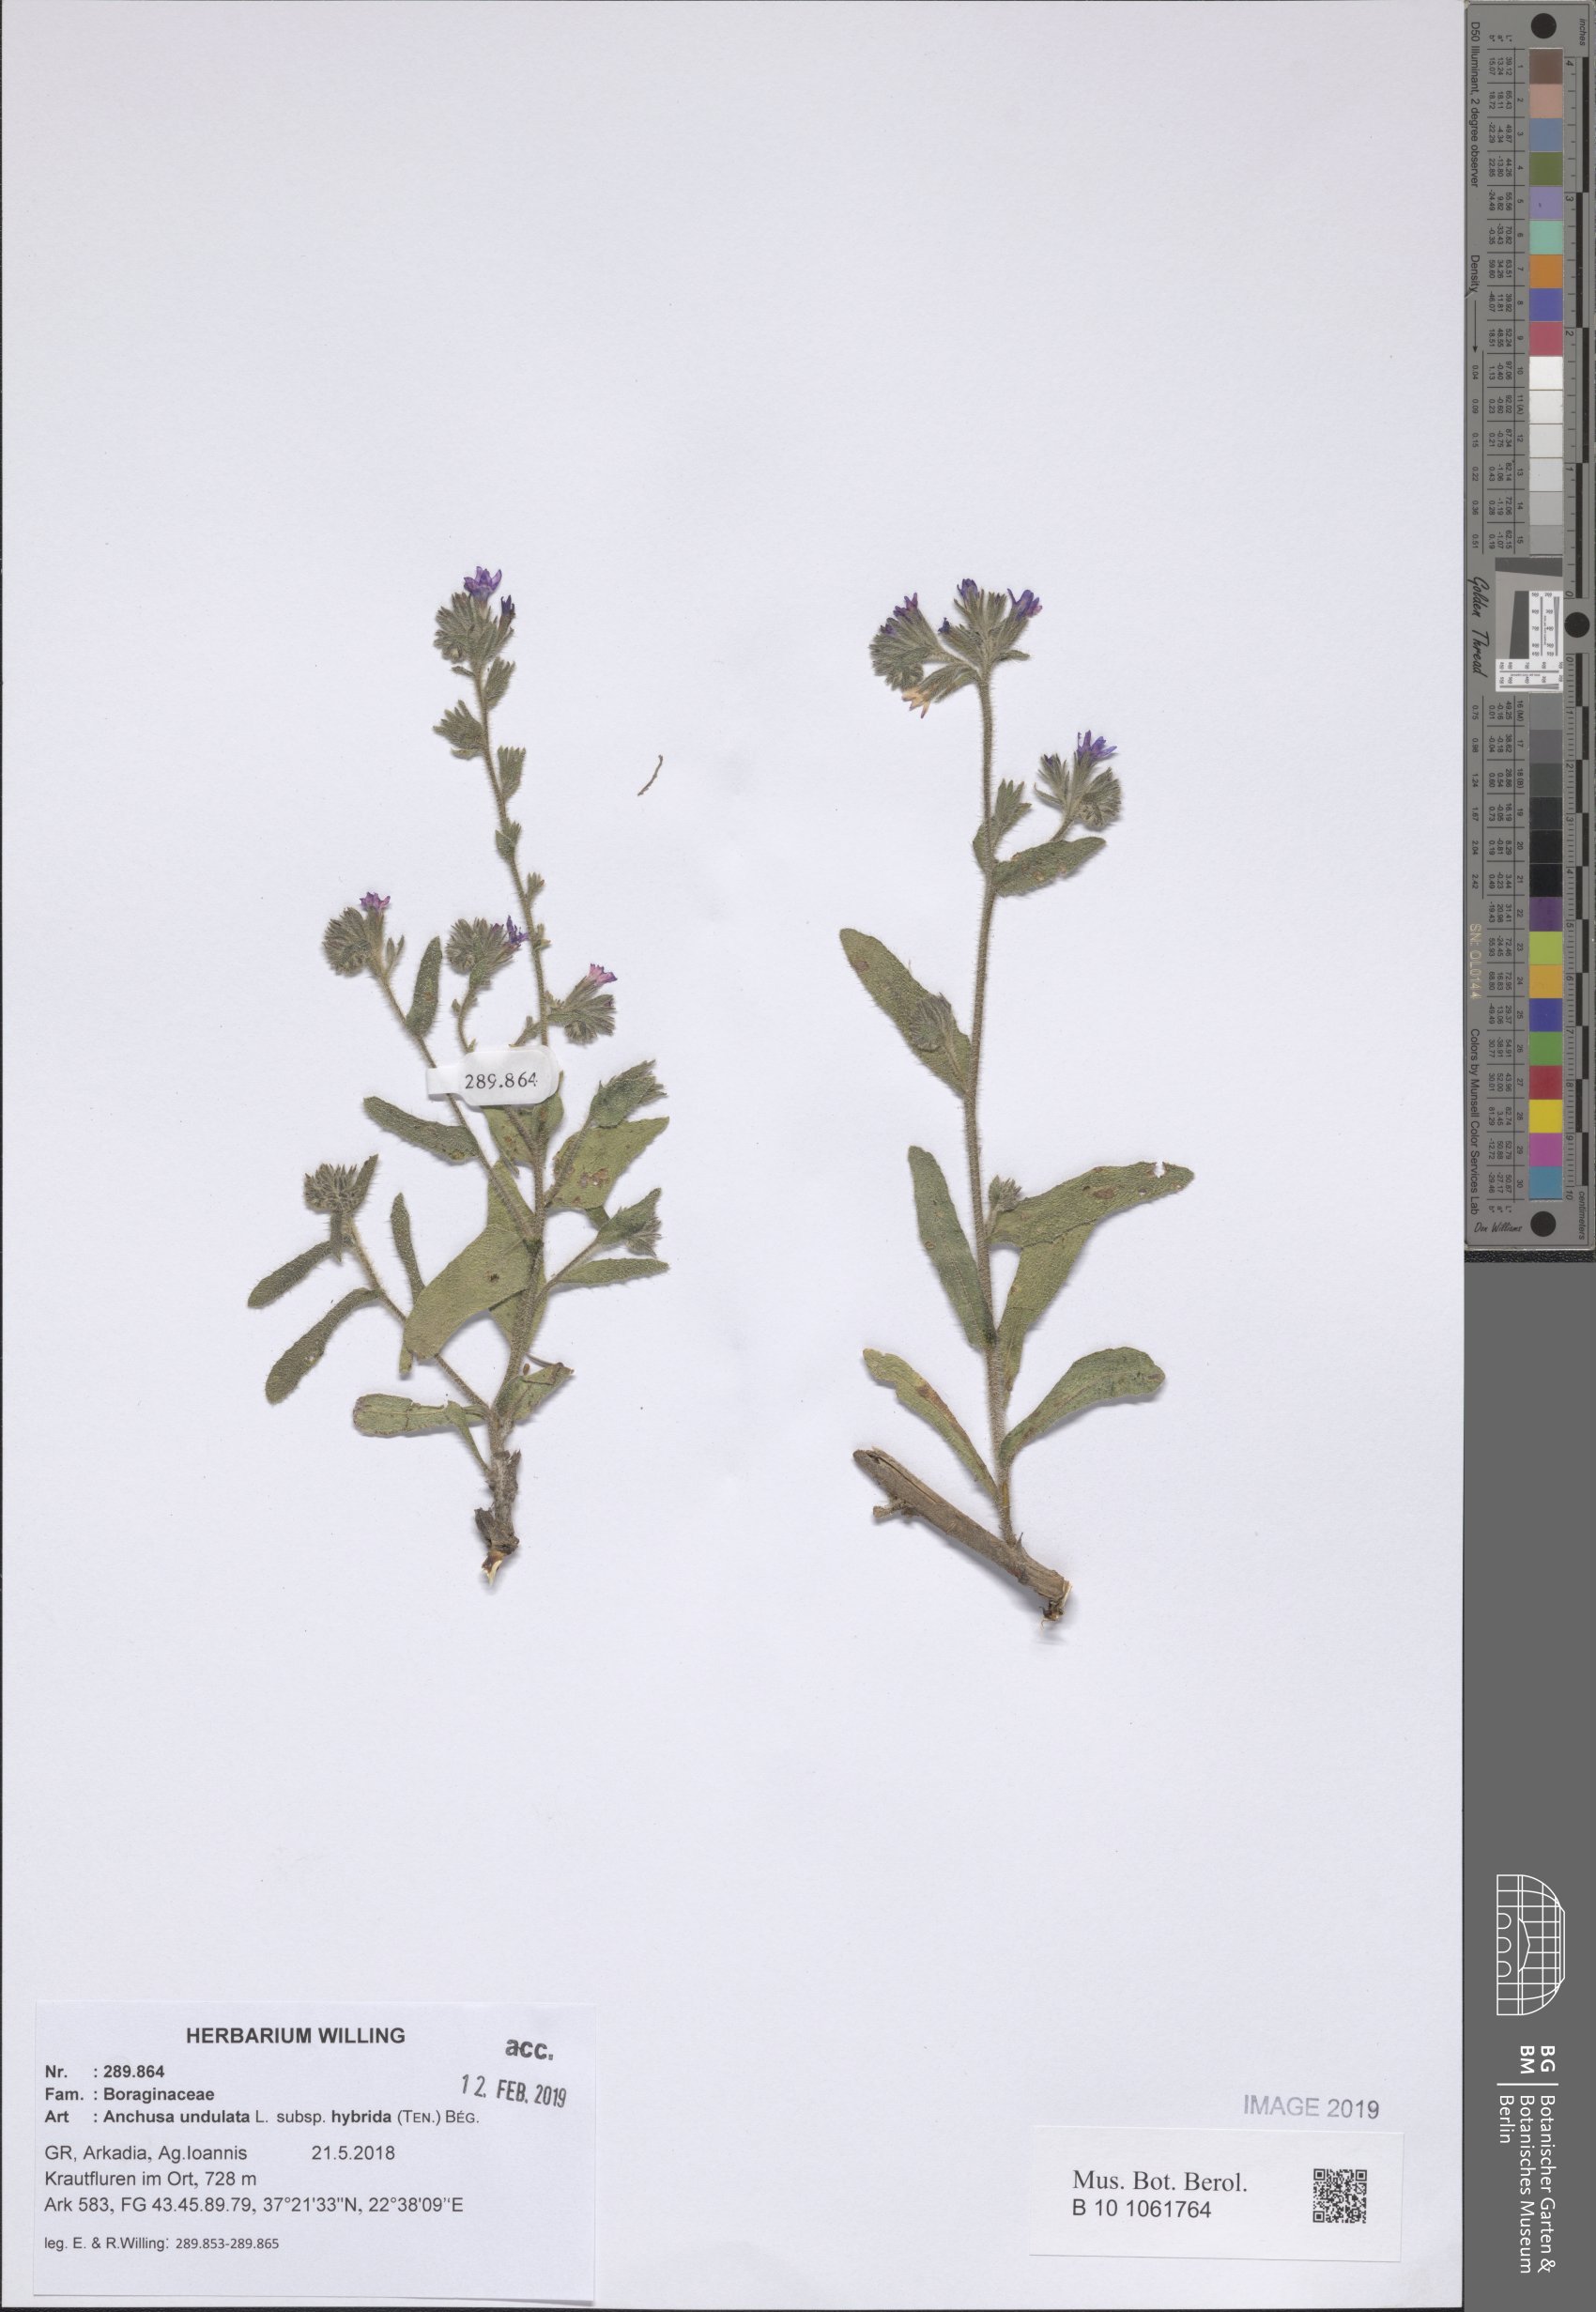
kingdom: Plantae
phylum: Tracheophyta
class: Magnoliopsida
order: Boraginales
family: Boraginaceae
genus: Anchusa
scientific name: Anchusa undulata
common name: Undulate alkanet
